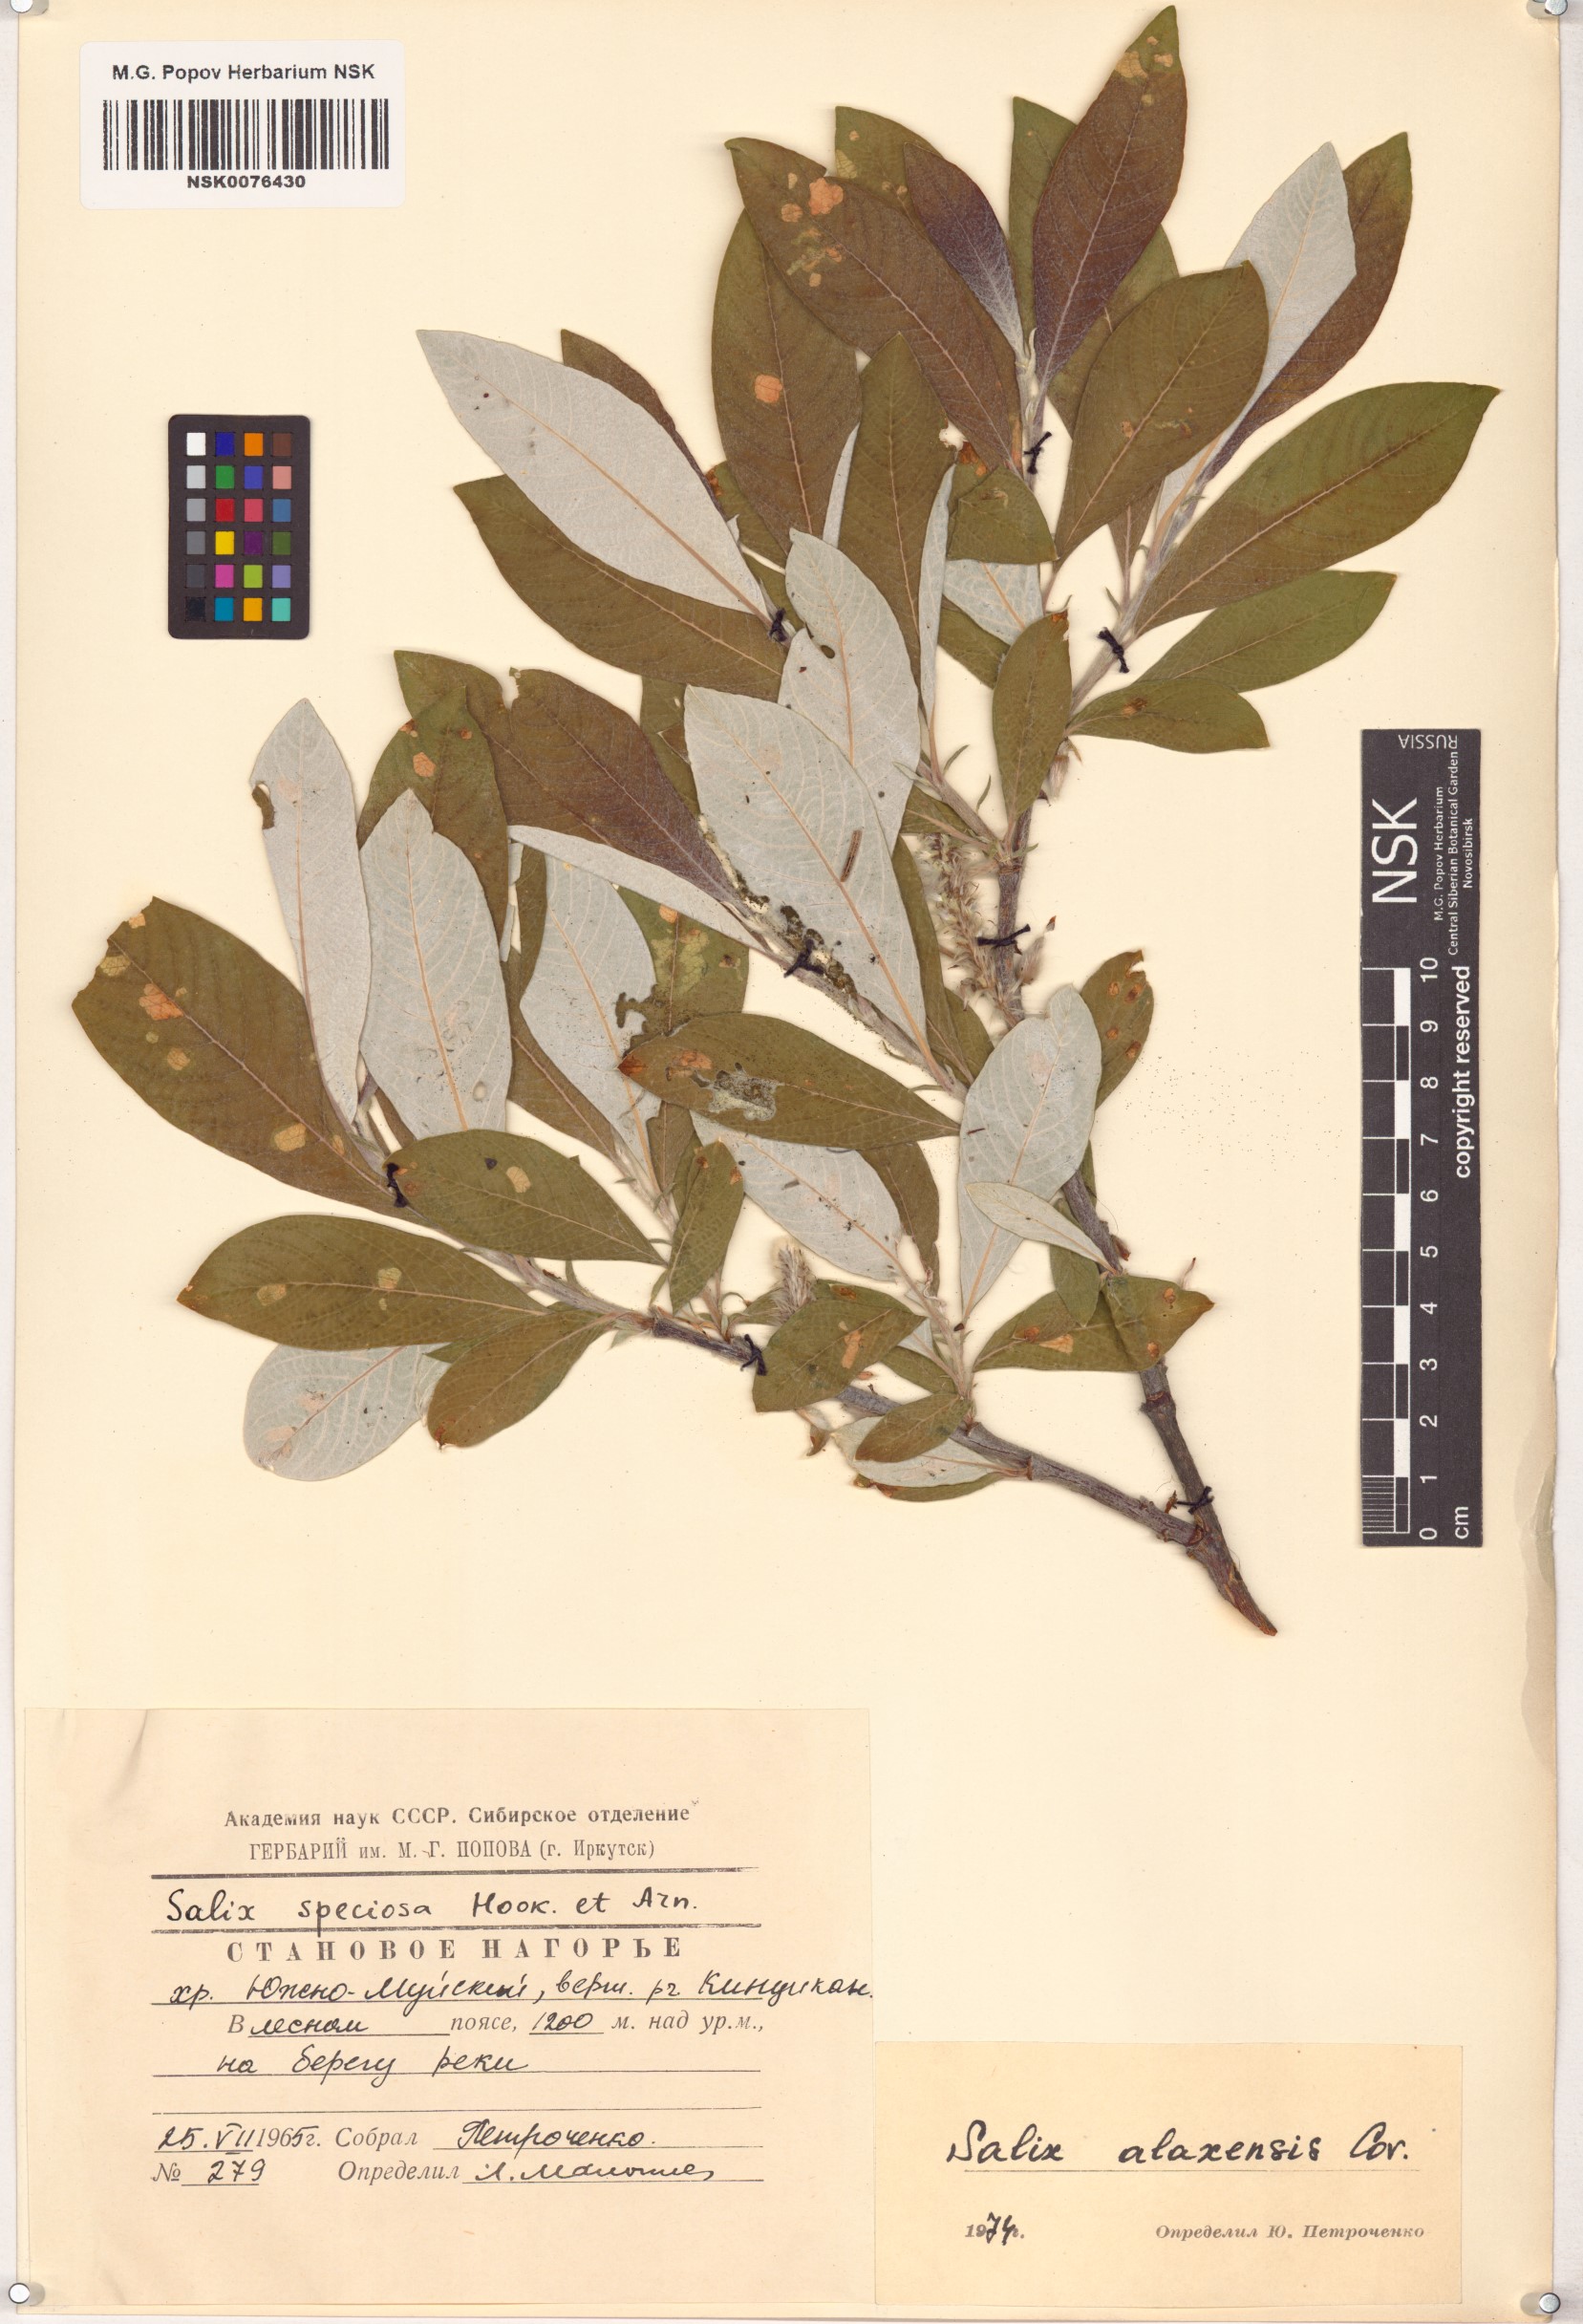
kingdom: Plantae
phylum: Tracheophyta
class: Magnoliopsida
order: Malpighiales
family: Salicaceae
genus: Salix
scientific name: Salix alaxensis
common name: Feltleaf willow
